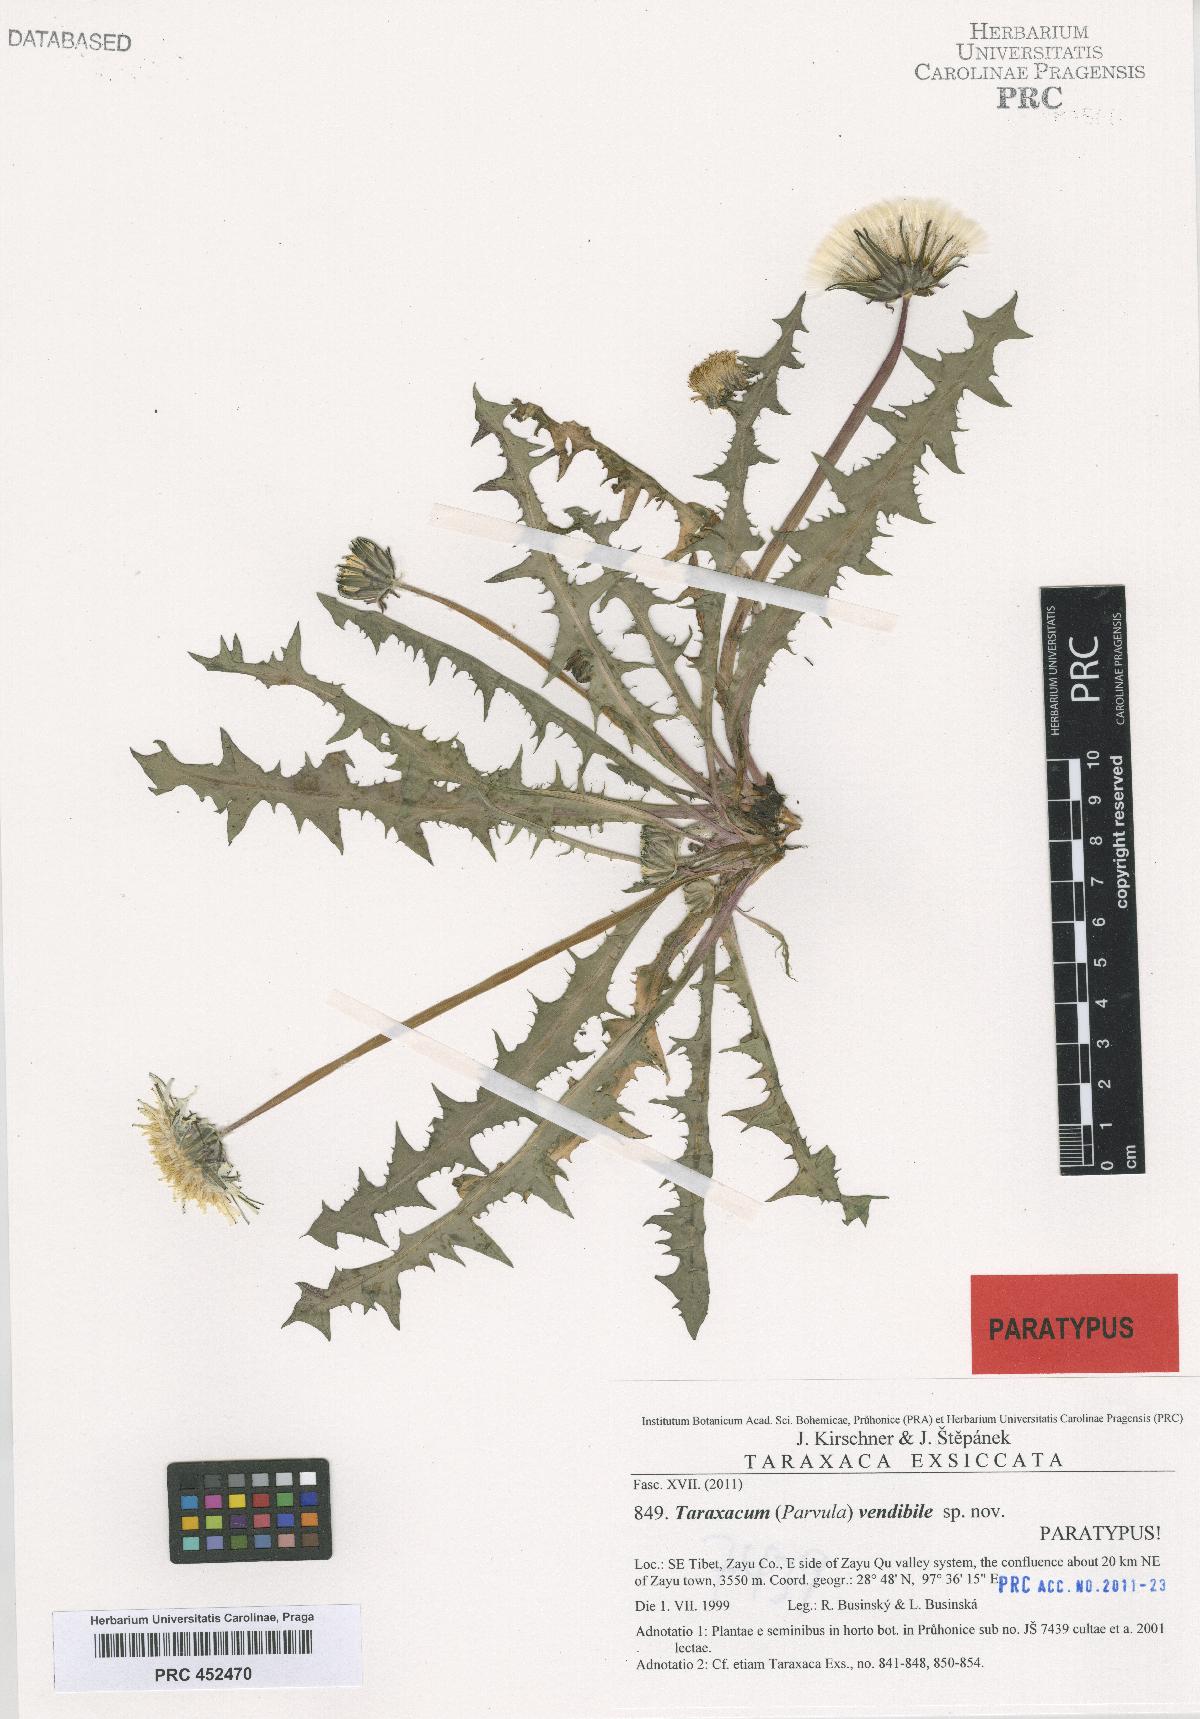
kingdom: Plantae
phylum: Tracheophyta
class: Magnoliopsida
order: Asterales
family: Asteraceae
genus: Taraxacum
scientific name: Taraxacum vendibile
